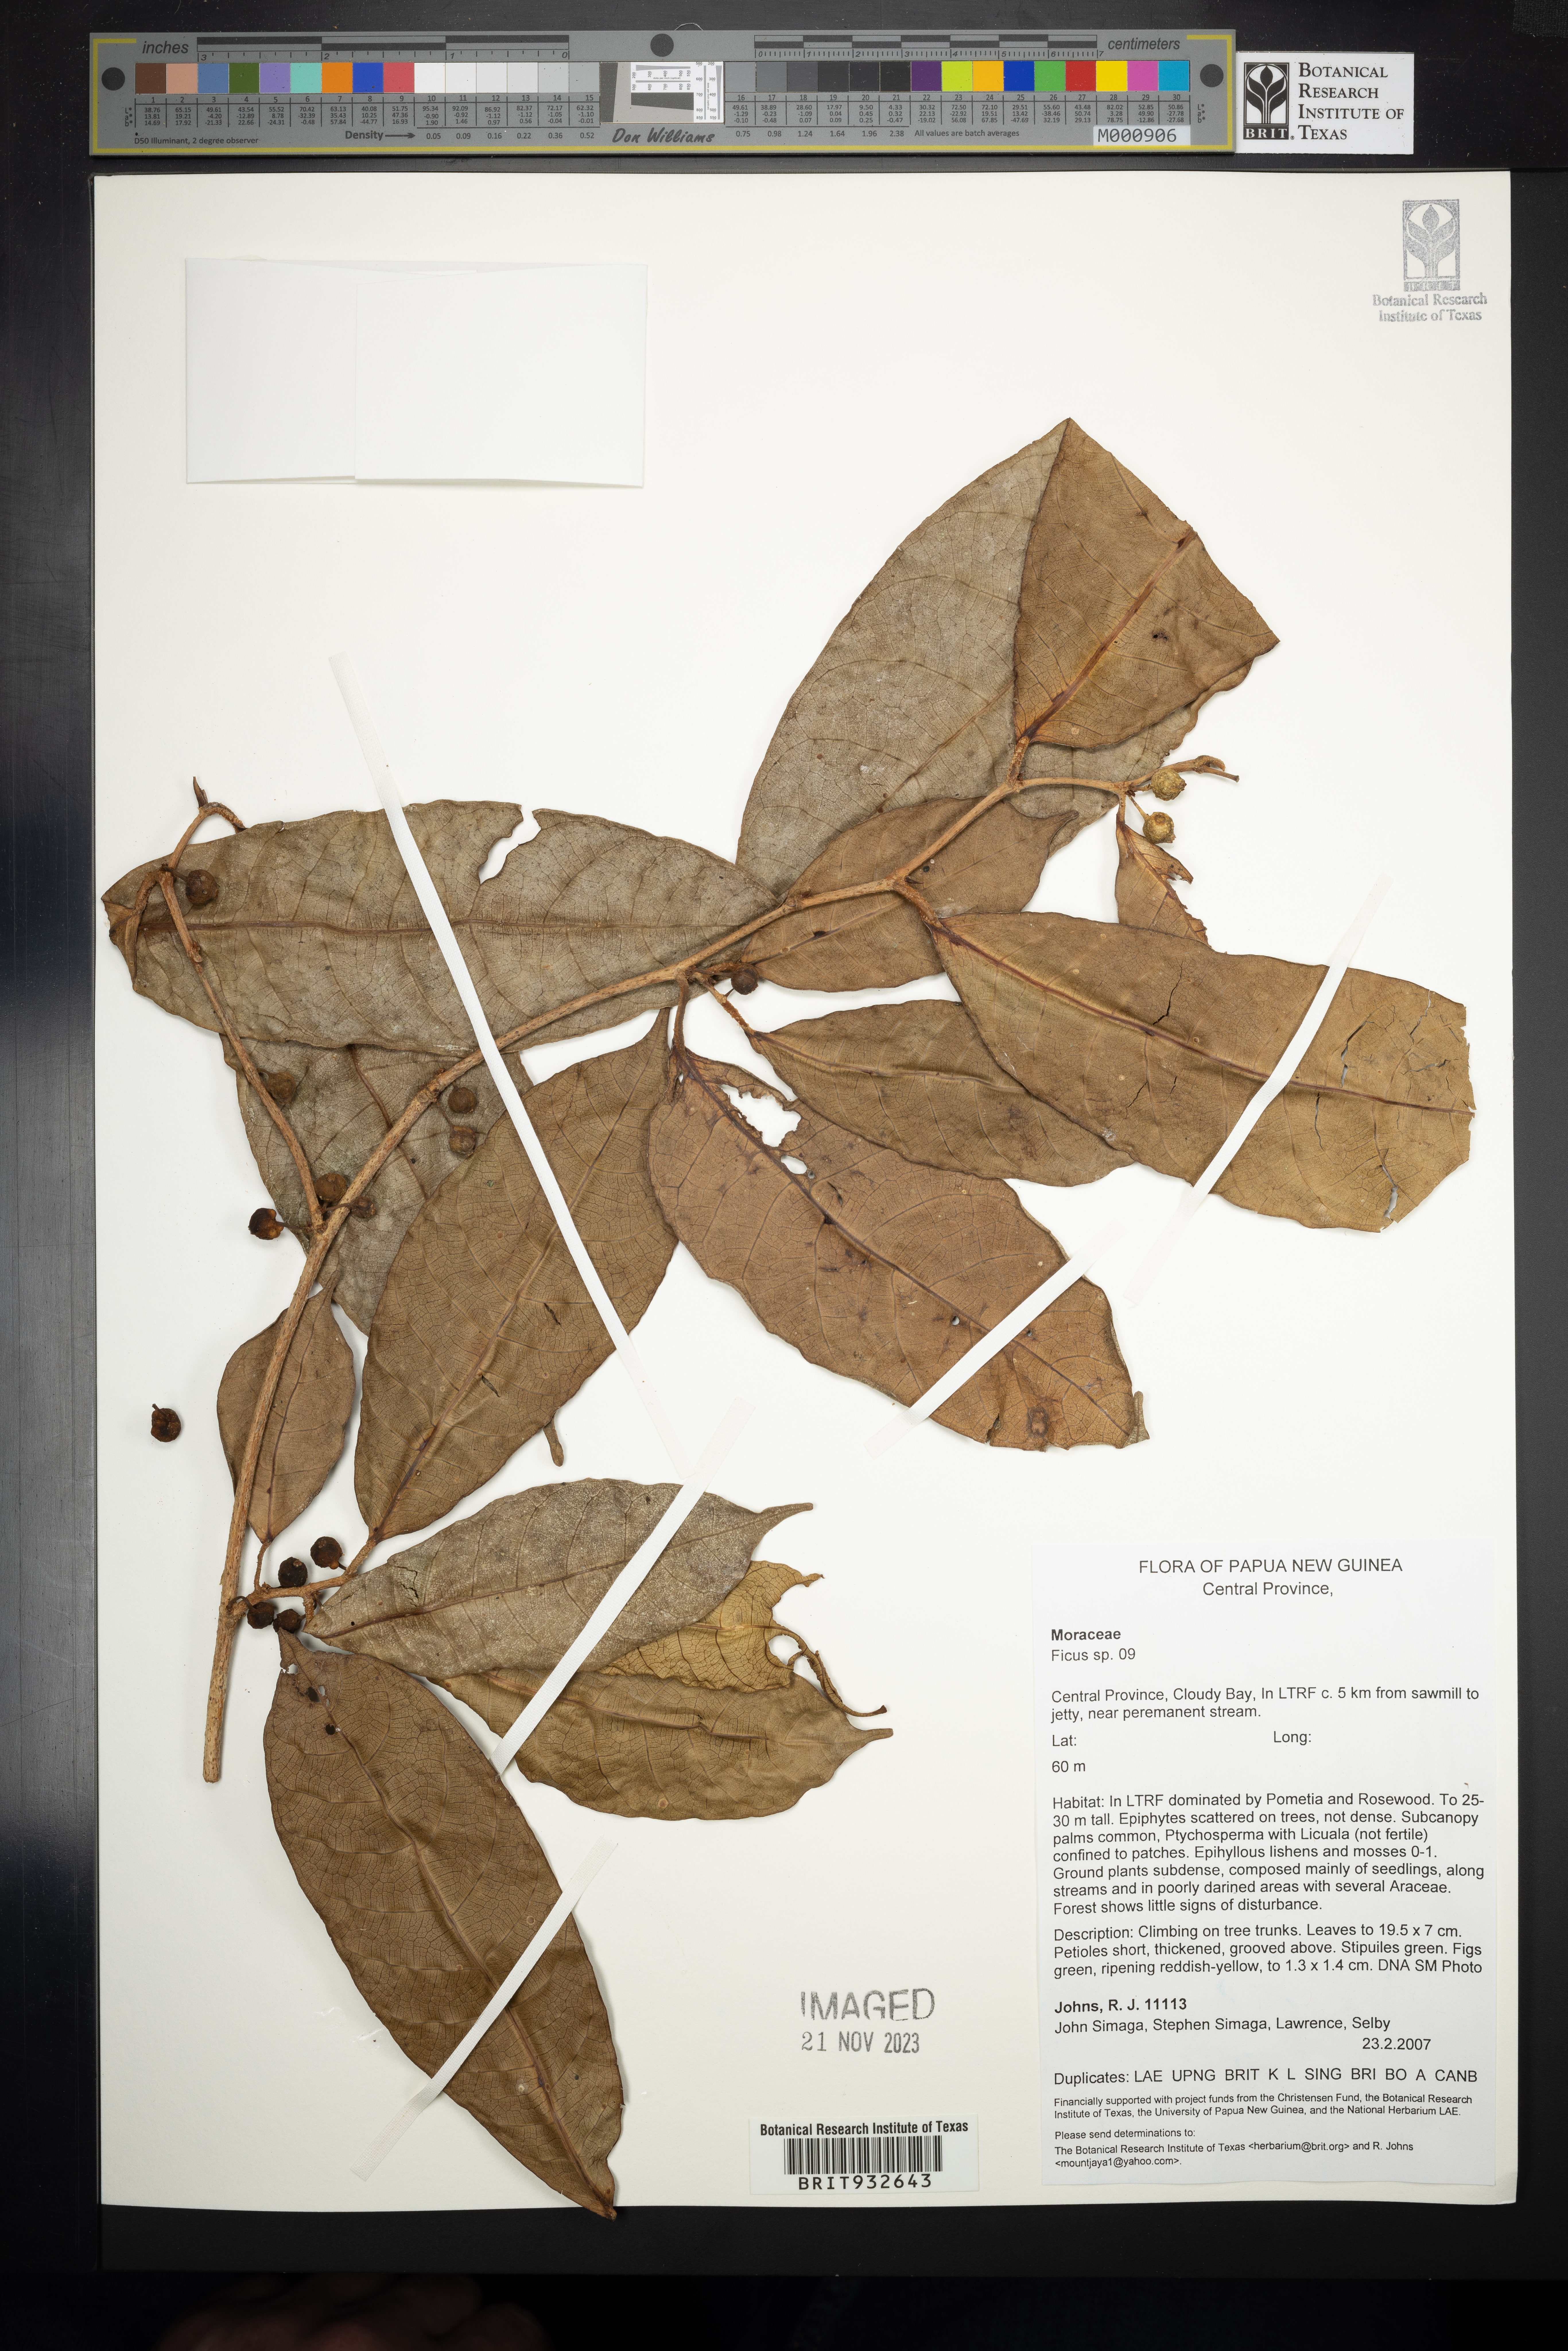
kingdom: Plantae
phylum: Tracheophyta
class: Magnoliopsida
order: Rosales
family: Moraceae
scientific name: Moraceae
